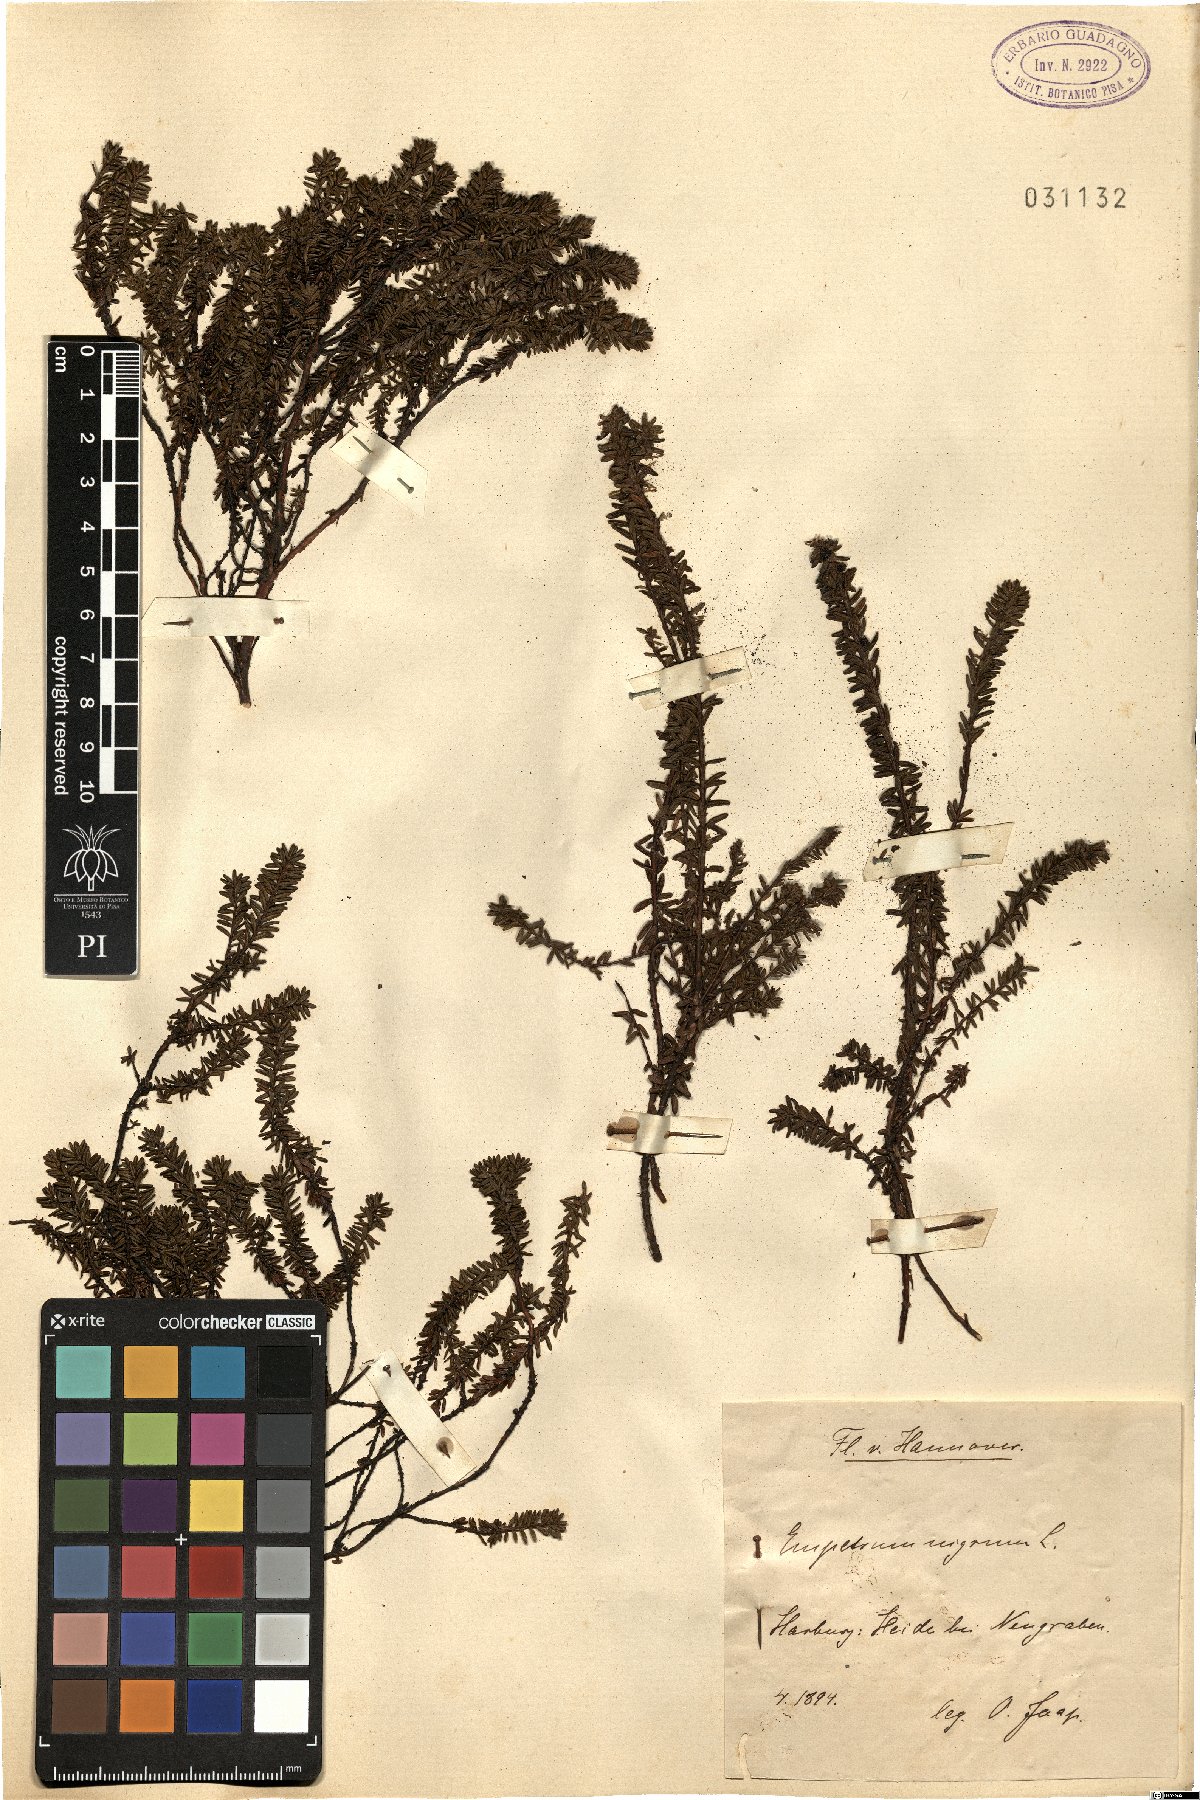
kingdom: Plantae
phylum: Tracheophyta
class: Magnoliopsida
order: Ericales
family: Ericaceae
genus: Empetrum
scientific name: Empetrum nigrum
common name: Black crowberry
